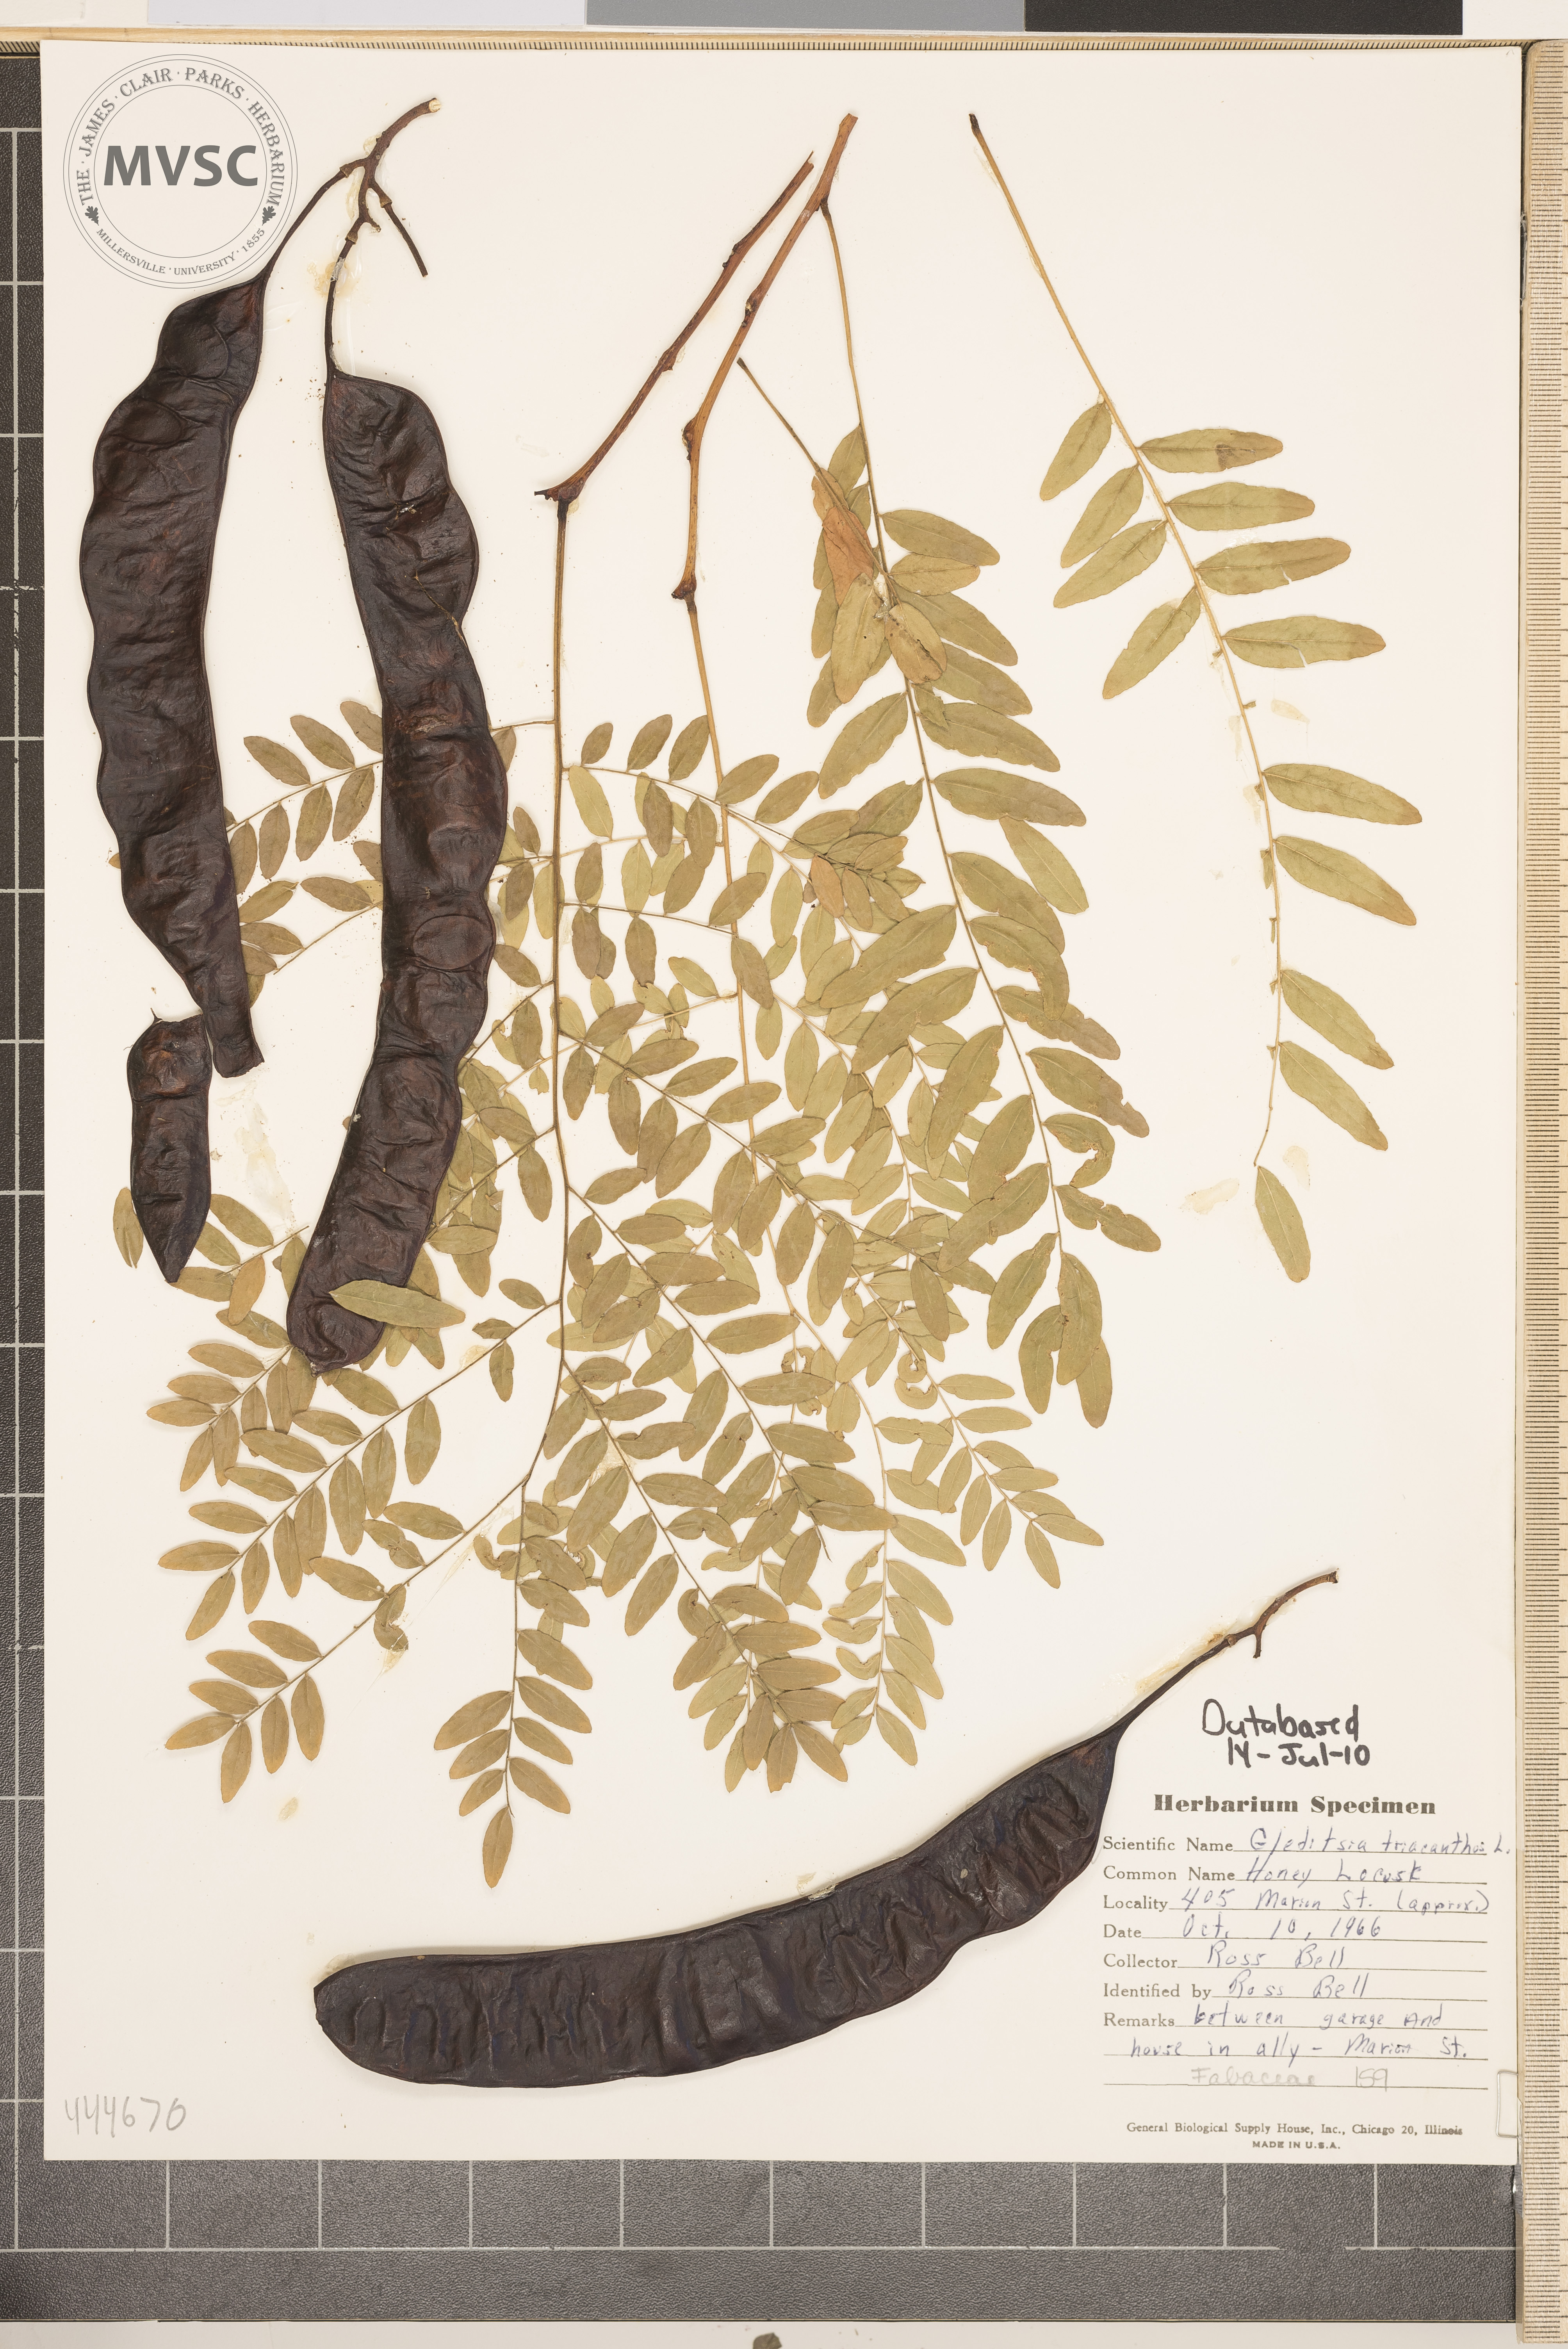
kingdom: Plantae
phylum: Tracheophyta
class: Magnoliopsida
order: Fabales
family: Fabaceae
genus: Gleditsia
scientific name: Gleditsia triacanthos
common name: Honey Locust
